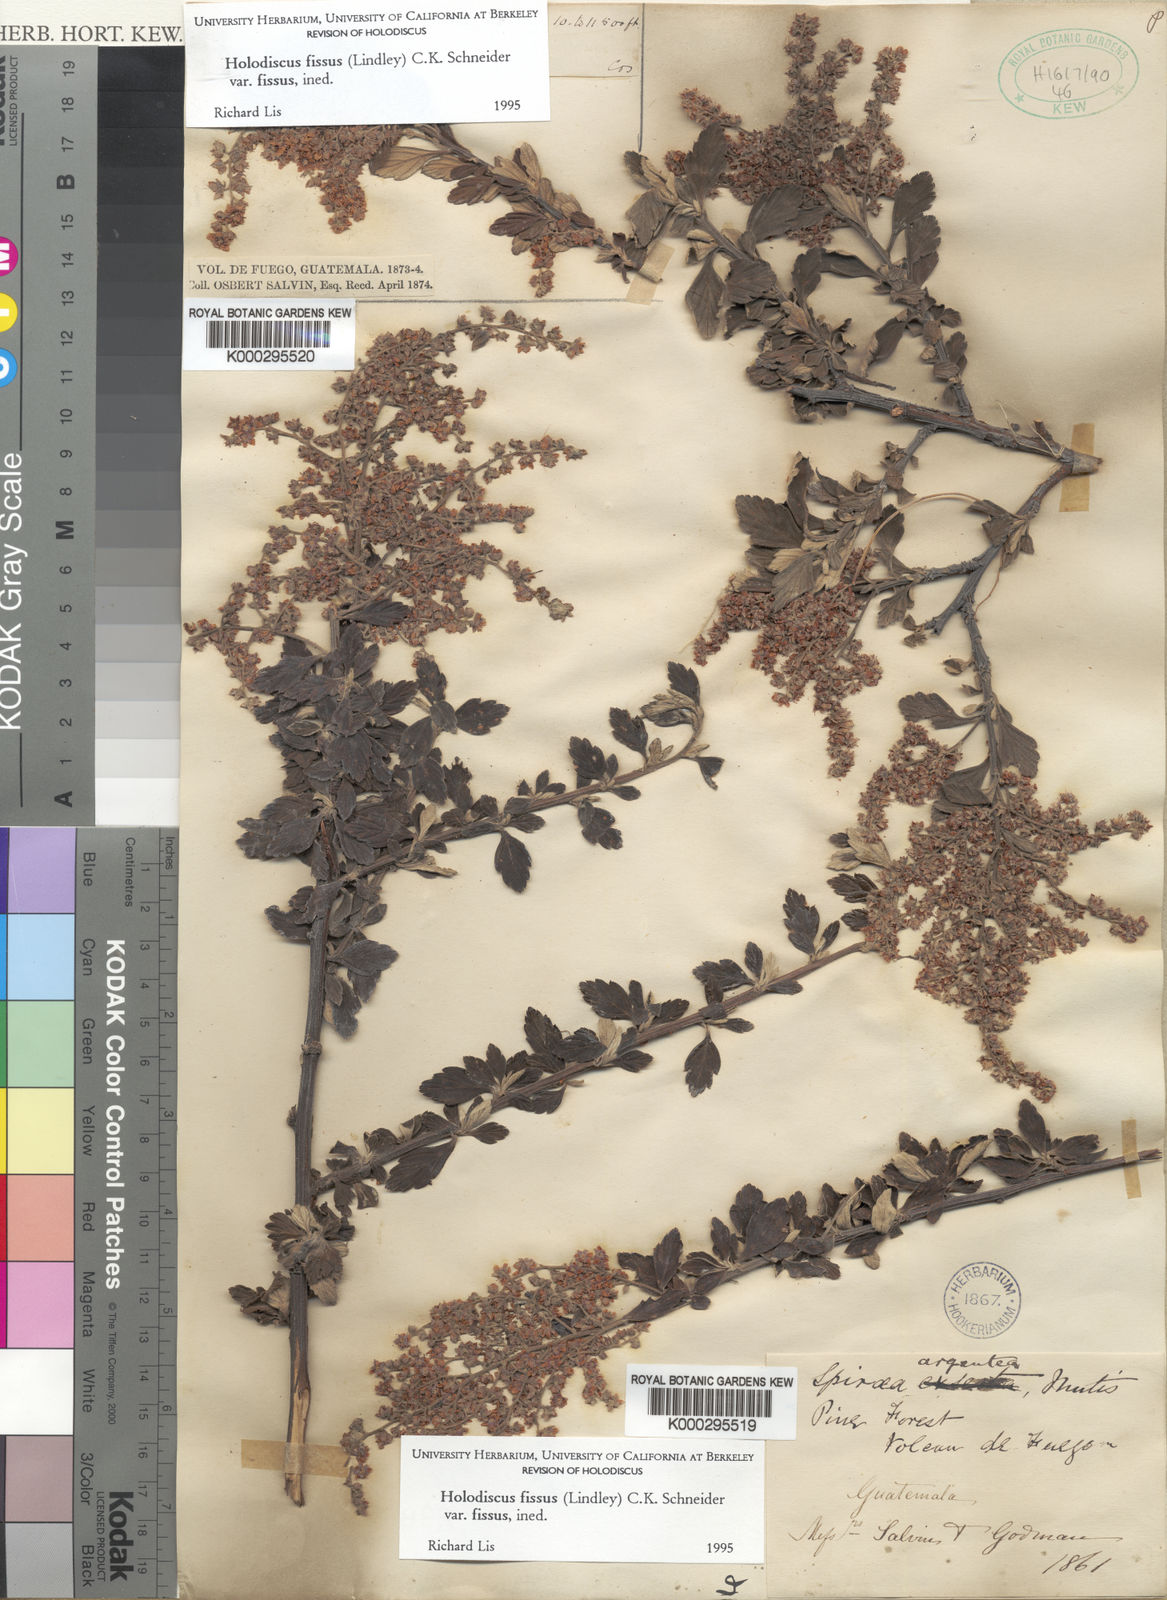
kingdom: Plantae
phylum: Tracheophyta
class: Magnoliopsida
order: Rosales
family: Rosaceae
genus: Holodiscus
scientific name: Holodiscus fissus
